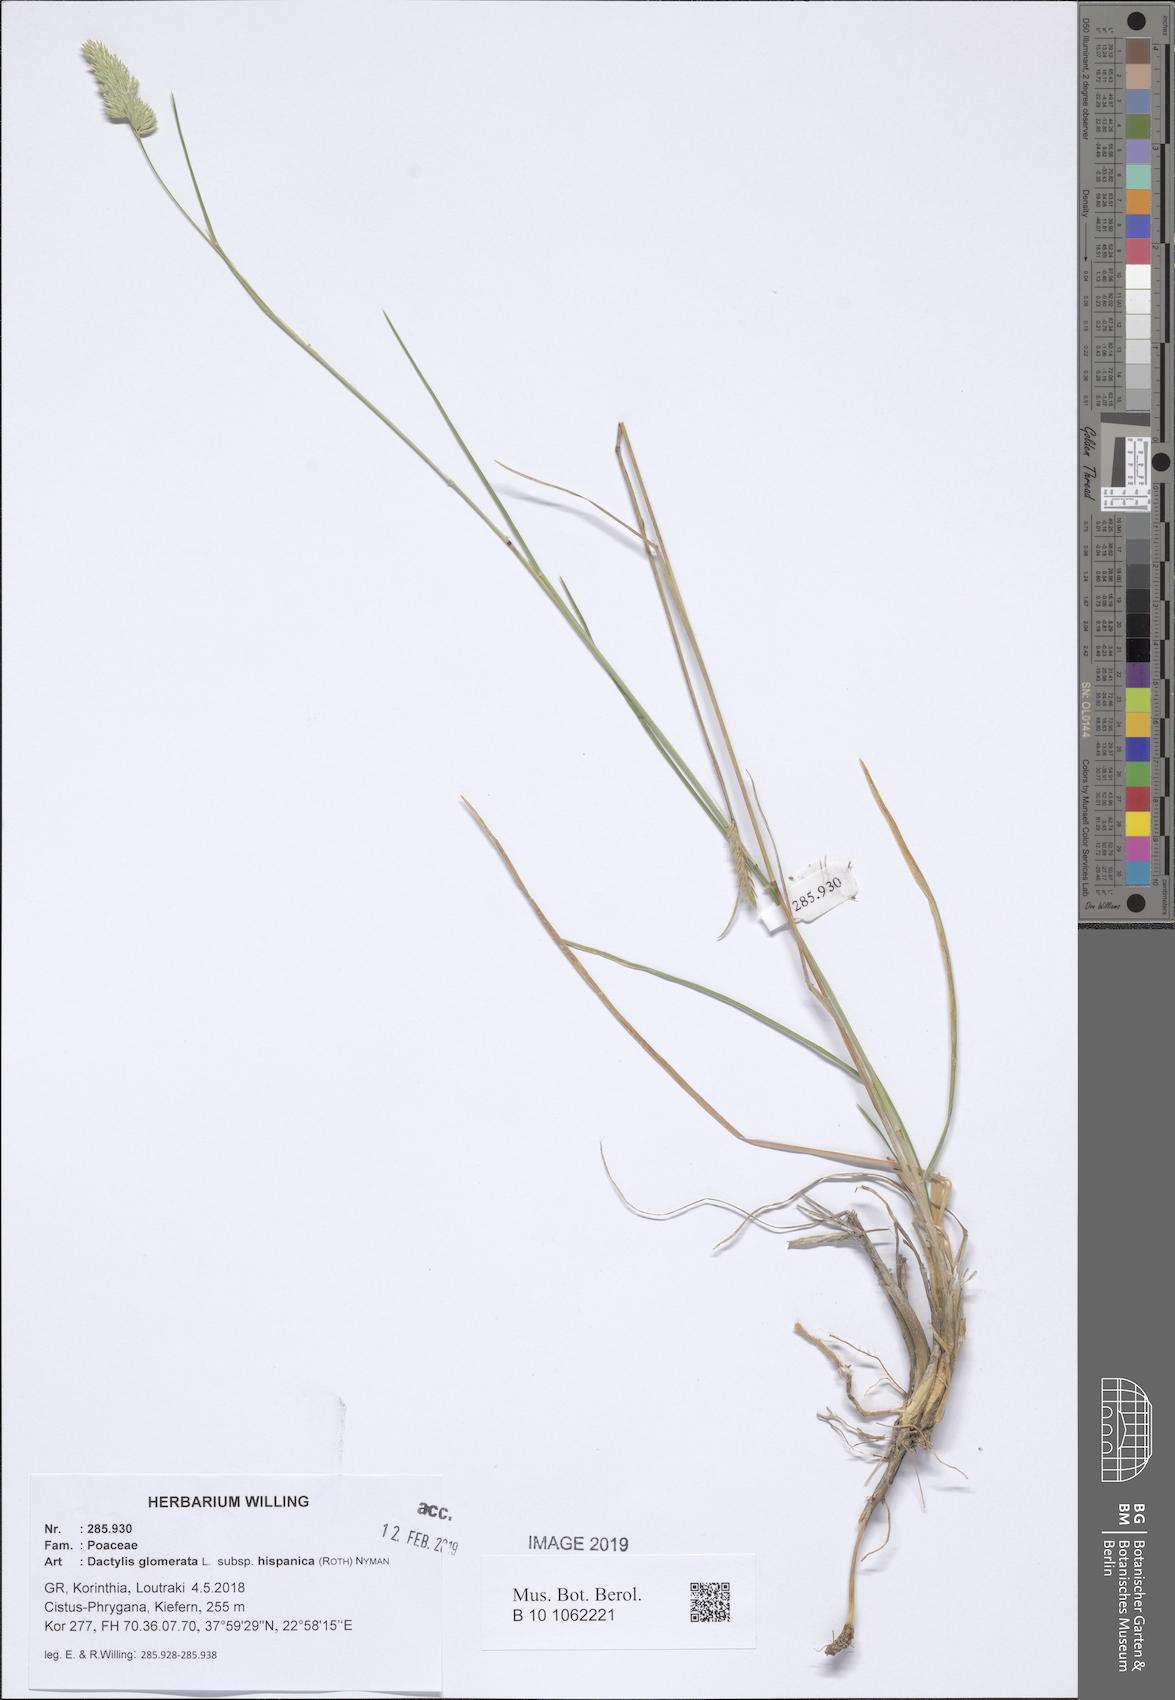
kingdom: Plantae
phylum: Tracheophyta
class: Liliopsida
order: Poales
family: Poaceae
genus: Dactylis
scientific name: Dactylis glomerata
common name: Orchardgrass
